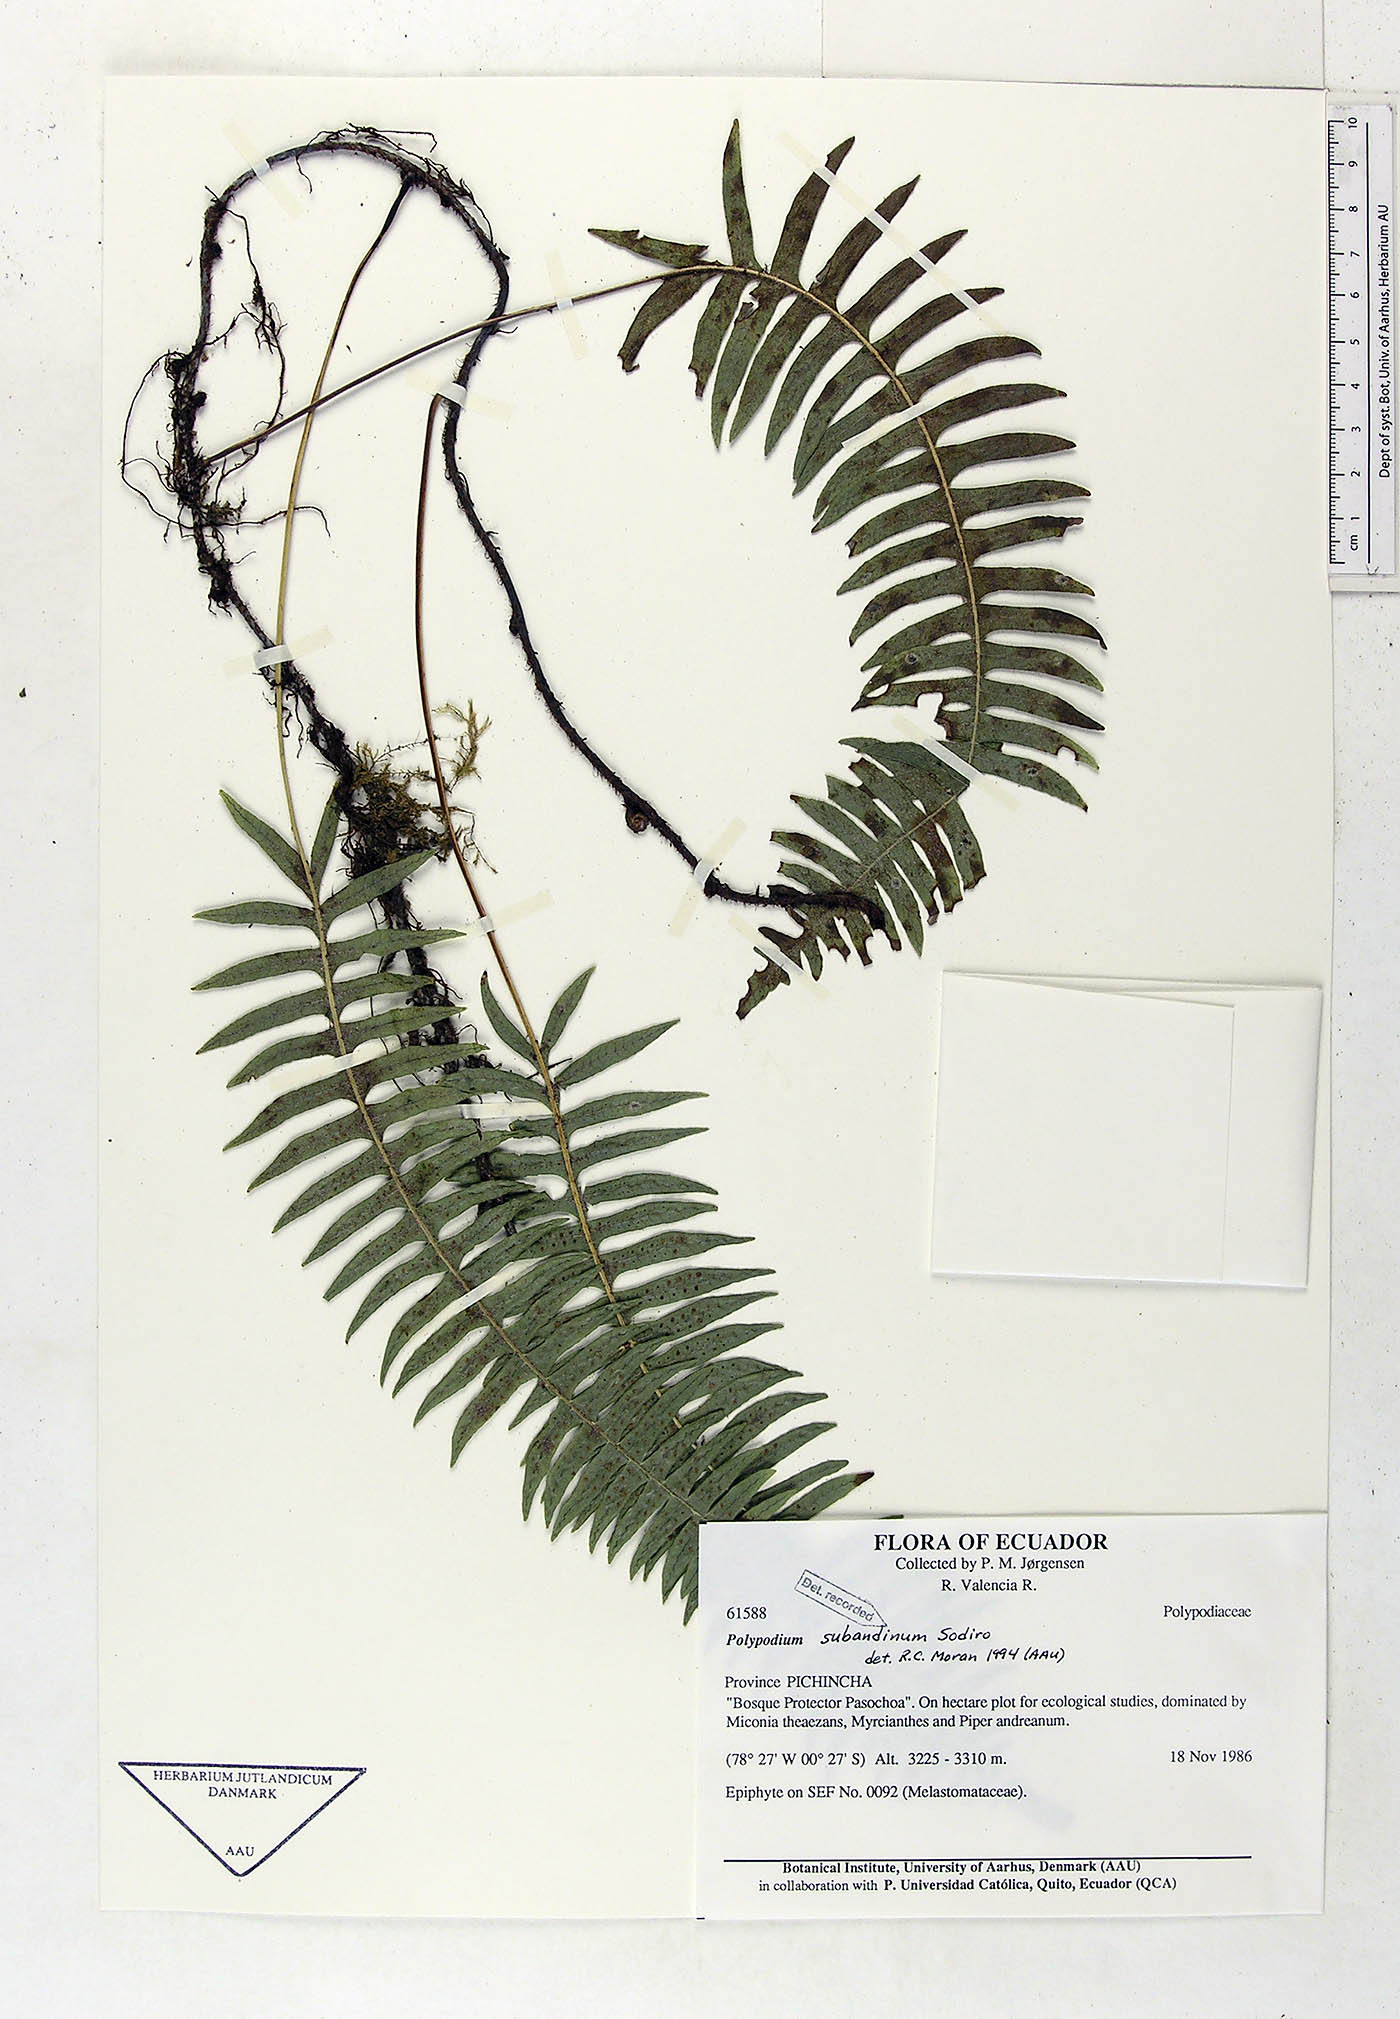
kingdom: Plantae
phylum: Tracheophyta
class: Polypodiopsida
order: Polypodiales
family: Polypodiaceae
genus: Serpocaulon
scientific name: Serpocaulon subandinum
